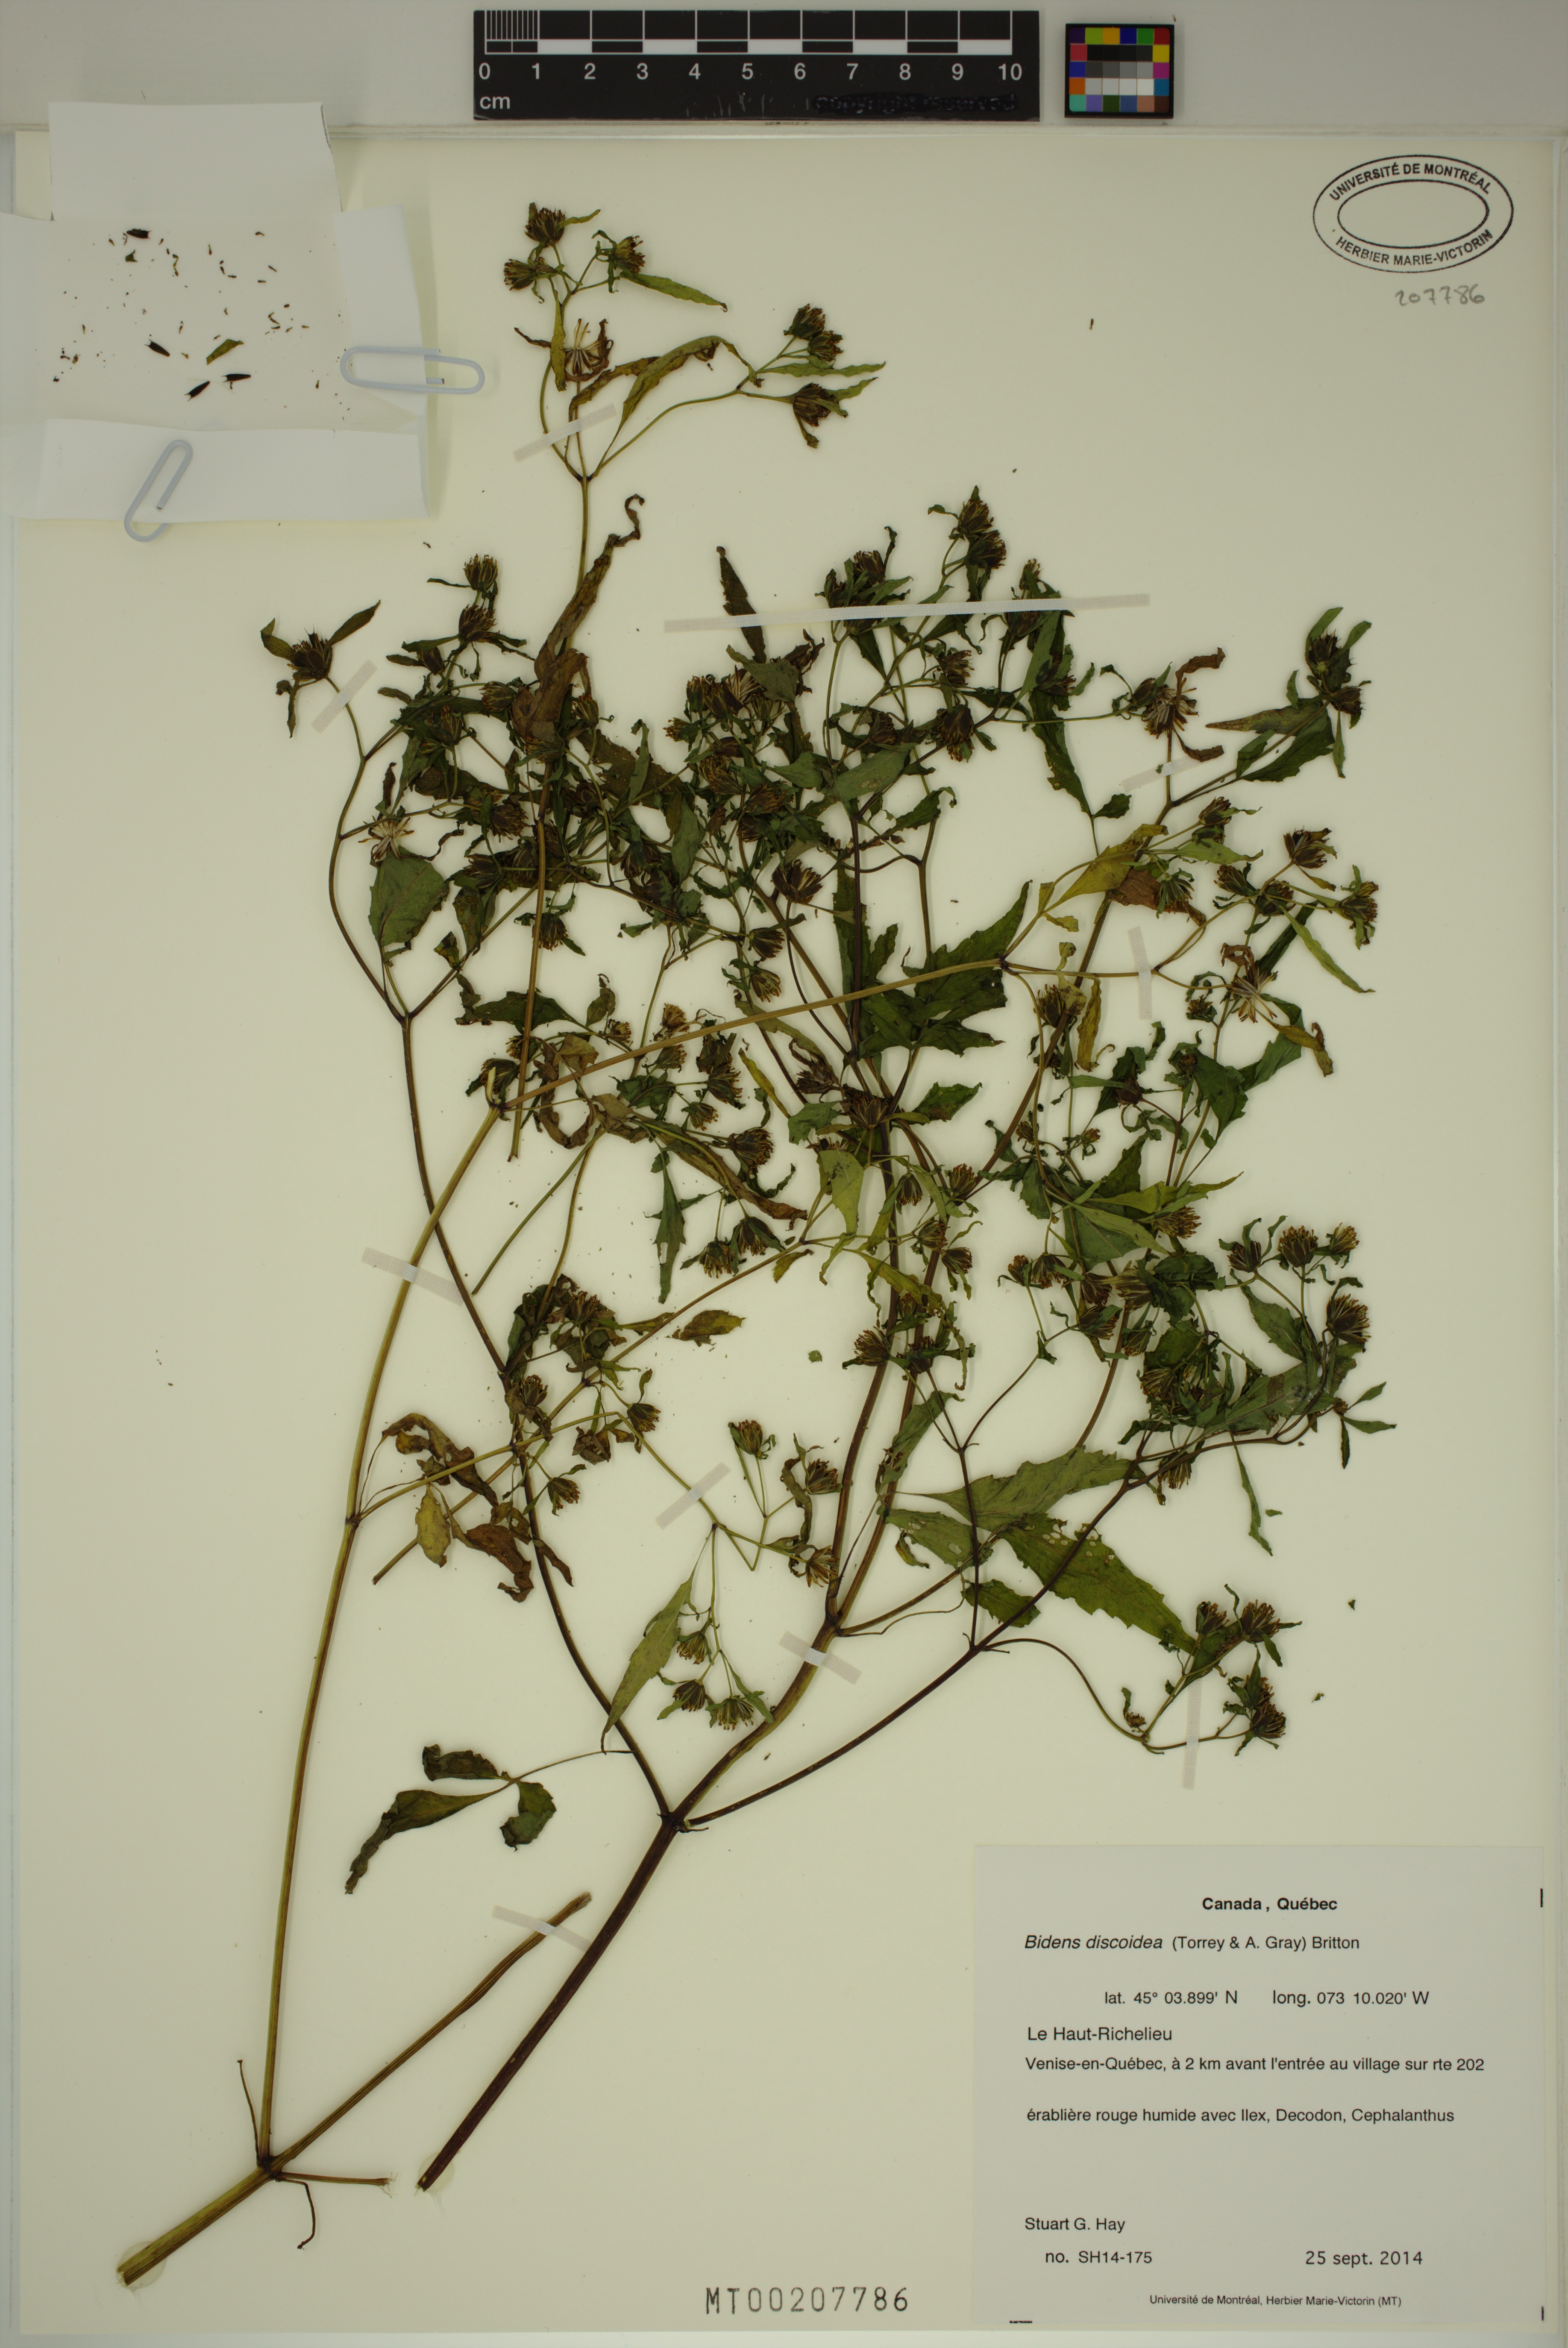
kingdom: Plantae
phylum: Tracheophyta
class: Magnoliopsida
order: Asterales
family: Asteraceae
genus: Bidens
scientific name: Bidens discoidea
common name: Discoide beggarticks
